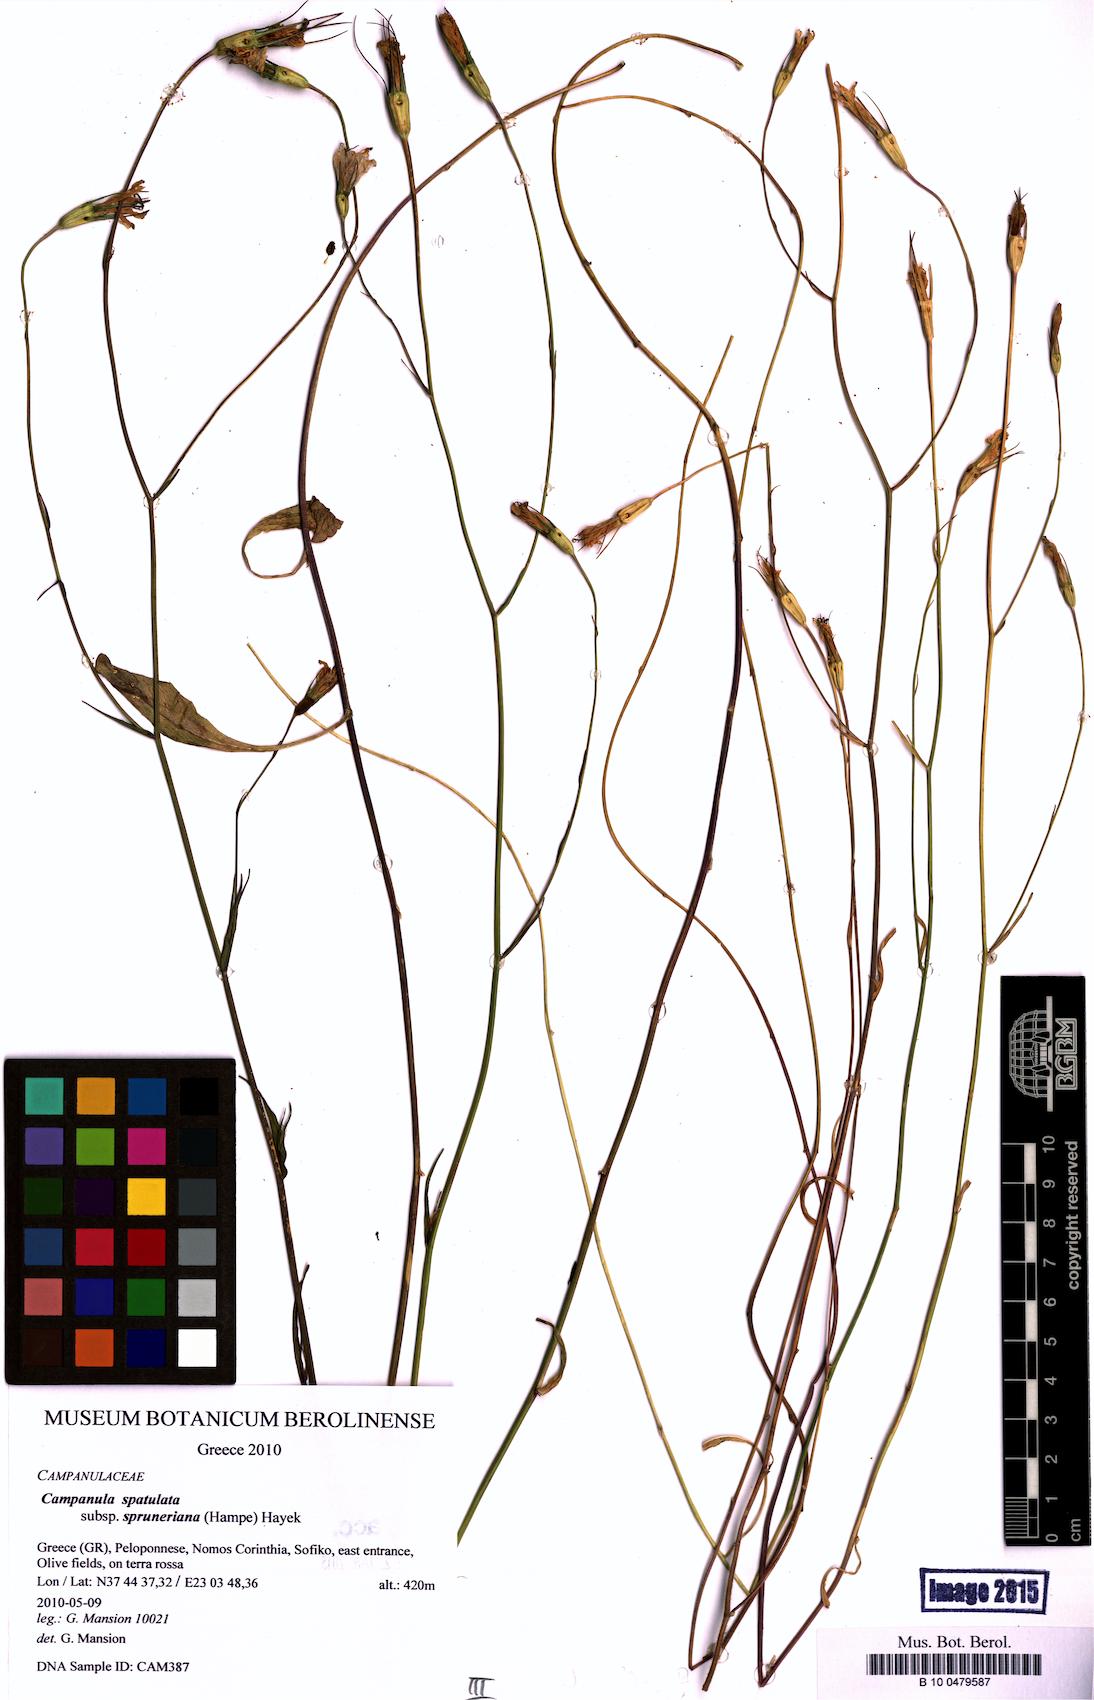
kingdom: Plantae
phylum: Tracheophyta
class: Magnoliopsida
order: Asterales
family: Campanulaceae
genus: Campanula
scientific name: Campanula spatulata
